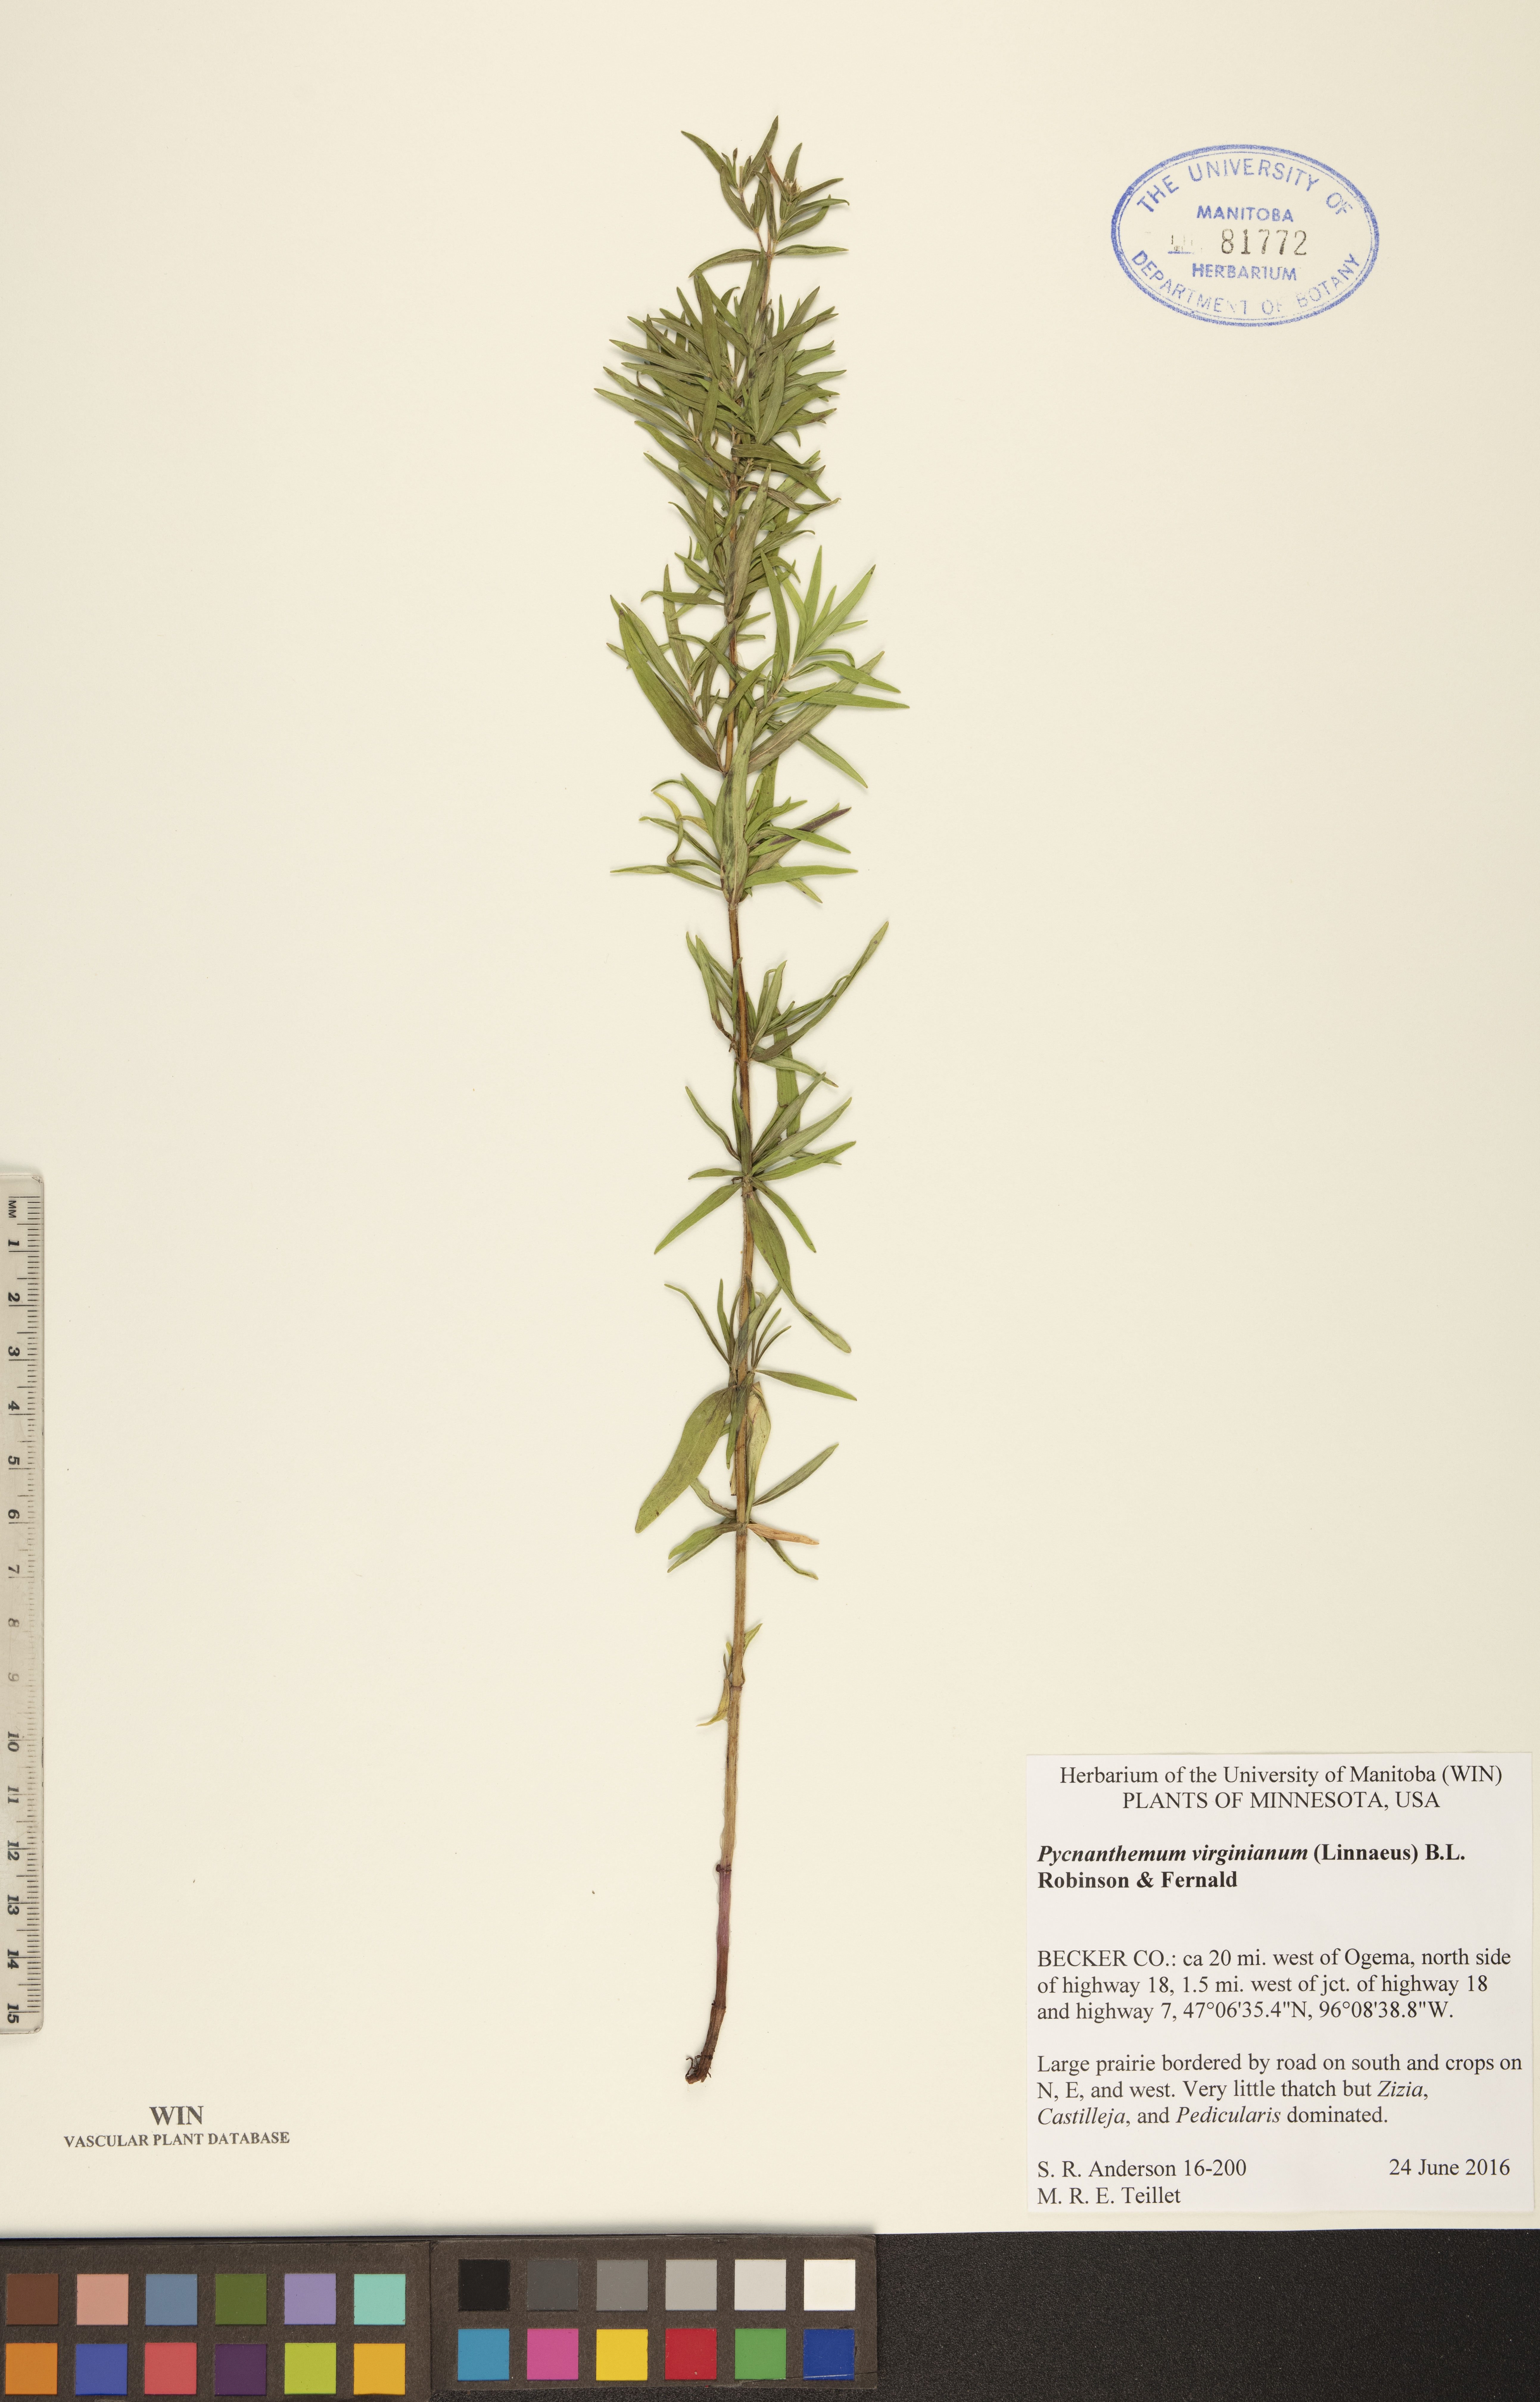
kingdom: Plantae
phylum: Tracheophyta
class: Magnoliopsida
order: Lamiales
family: Lamiaceae
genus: Pycnanthemum
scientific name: Pycnanthemum virginianum
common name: Virginia mountain-mint
